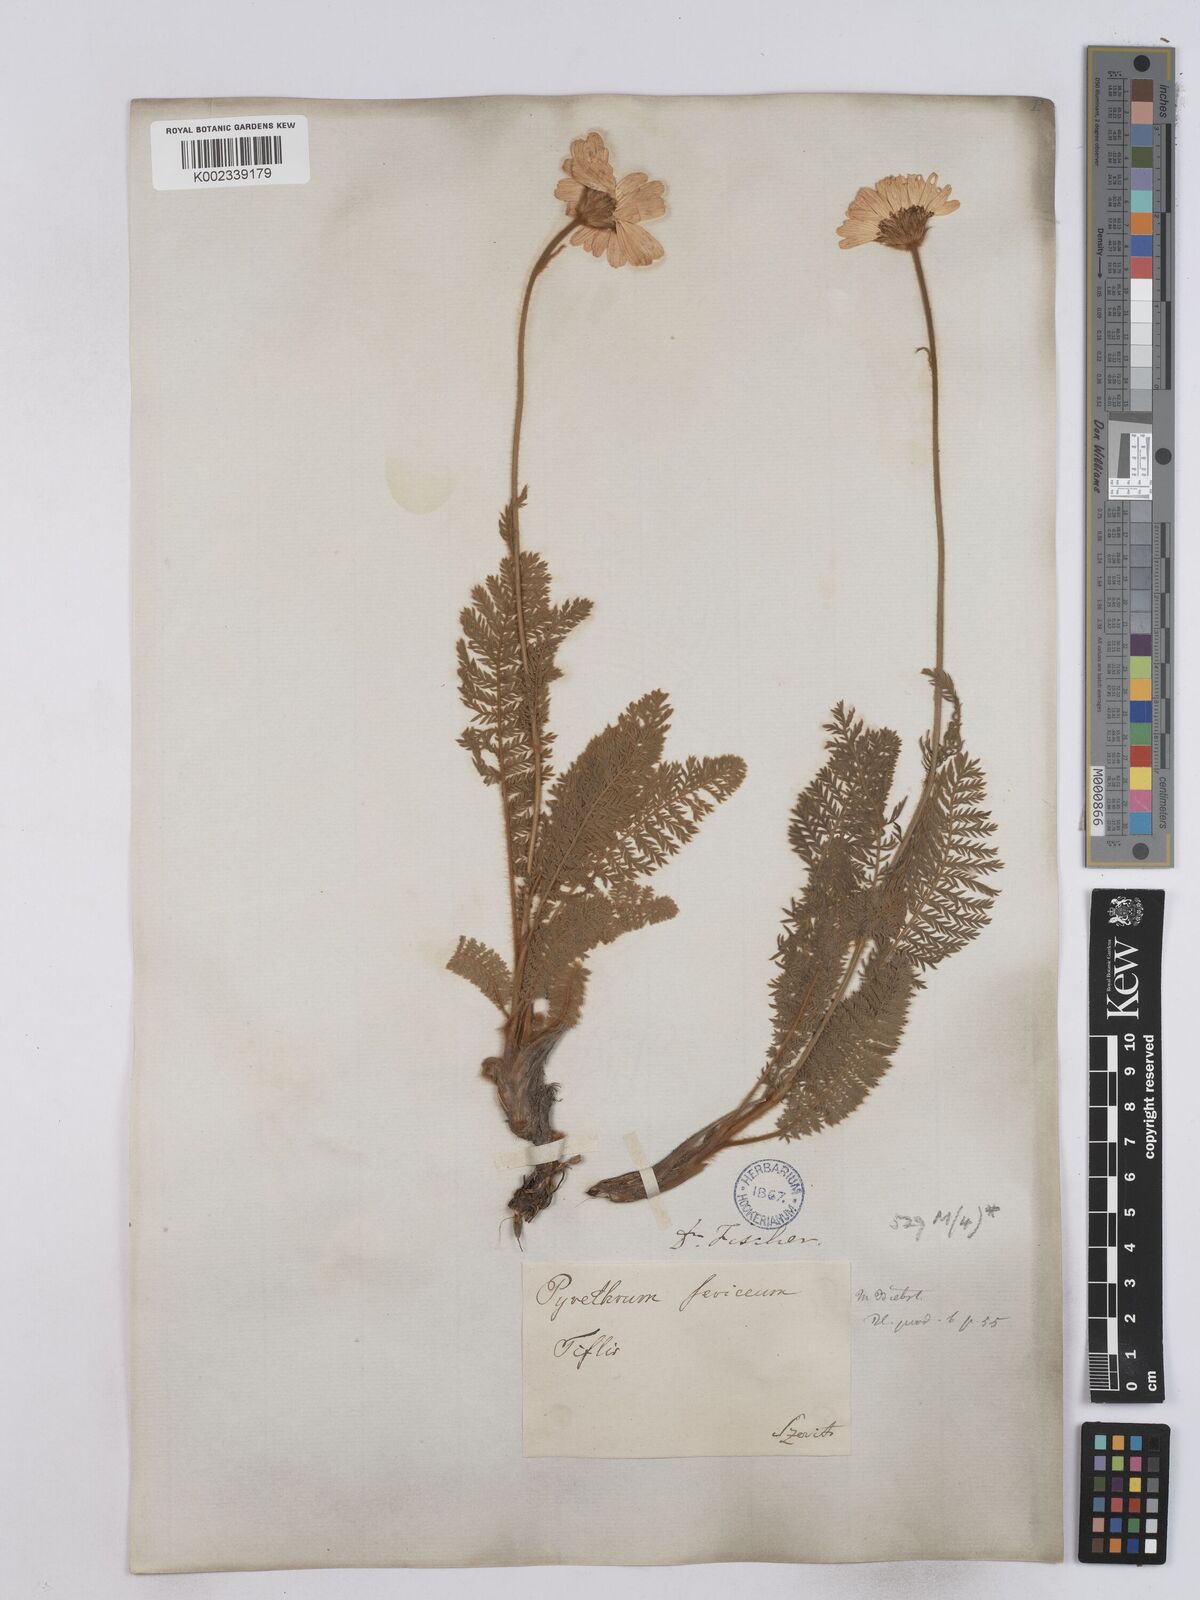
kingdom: Plantae
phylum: Tracheophyta
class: Magnoliopsida
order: Asterales
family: Asteraceae
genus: Tanacetum
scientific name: Tanacetum sericeum
